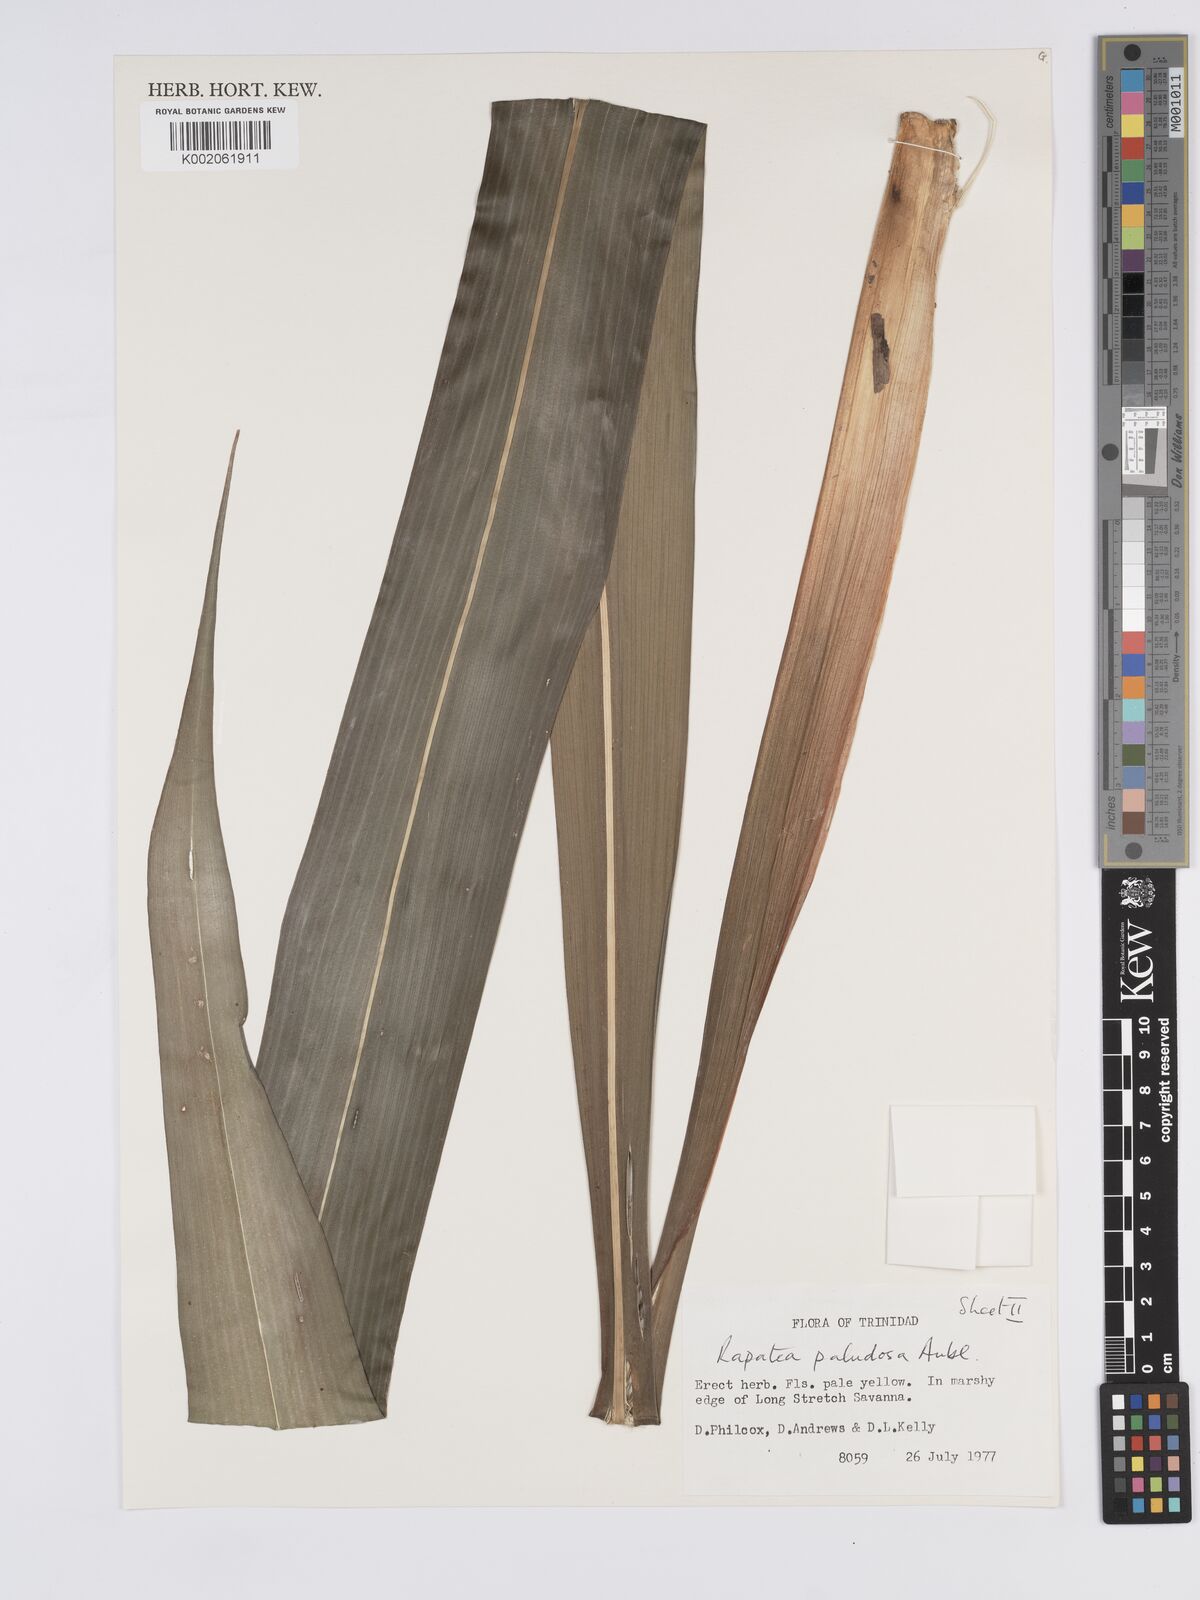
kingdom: Plantae
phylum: Tracheophyta
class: Liliopsida
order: Poales
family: Rapateaceae
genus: Rapatea
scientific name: Rapatea paludosa
